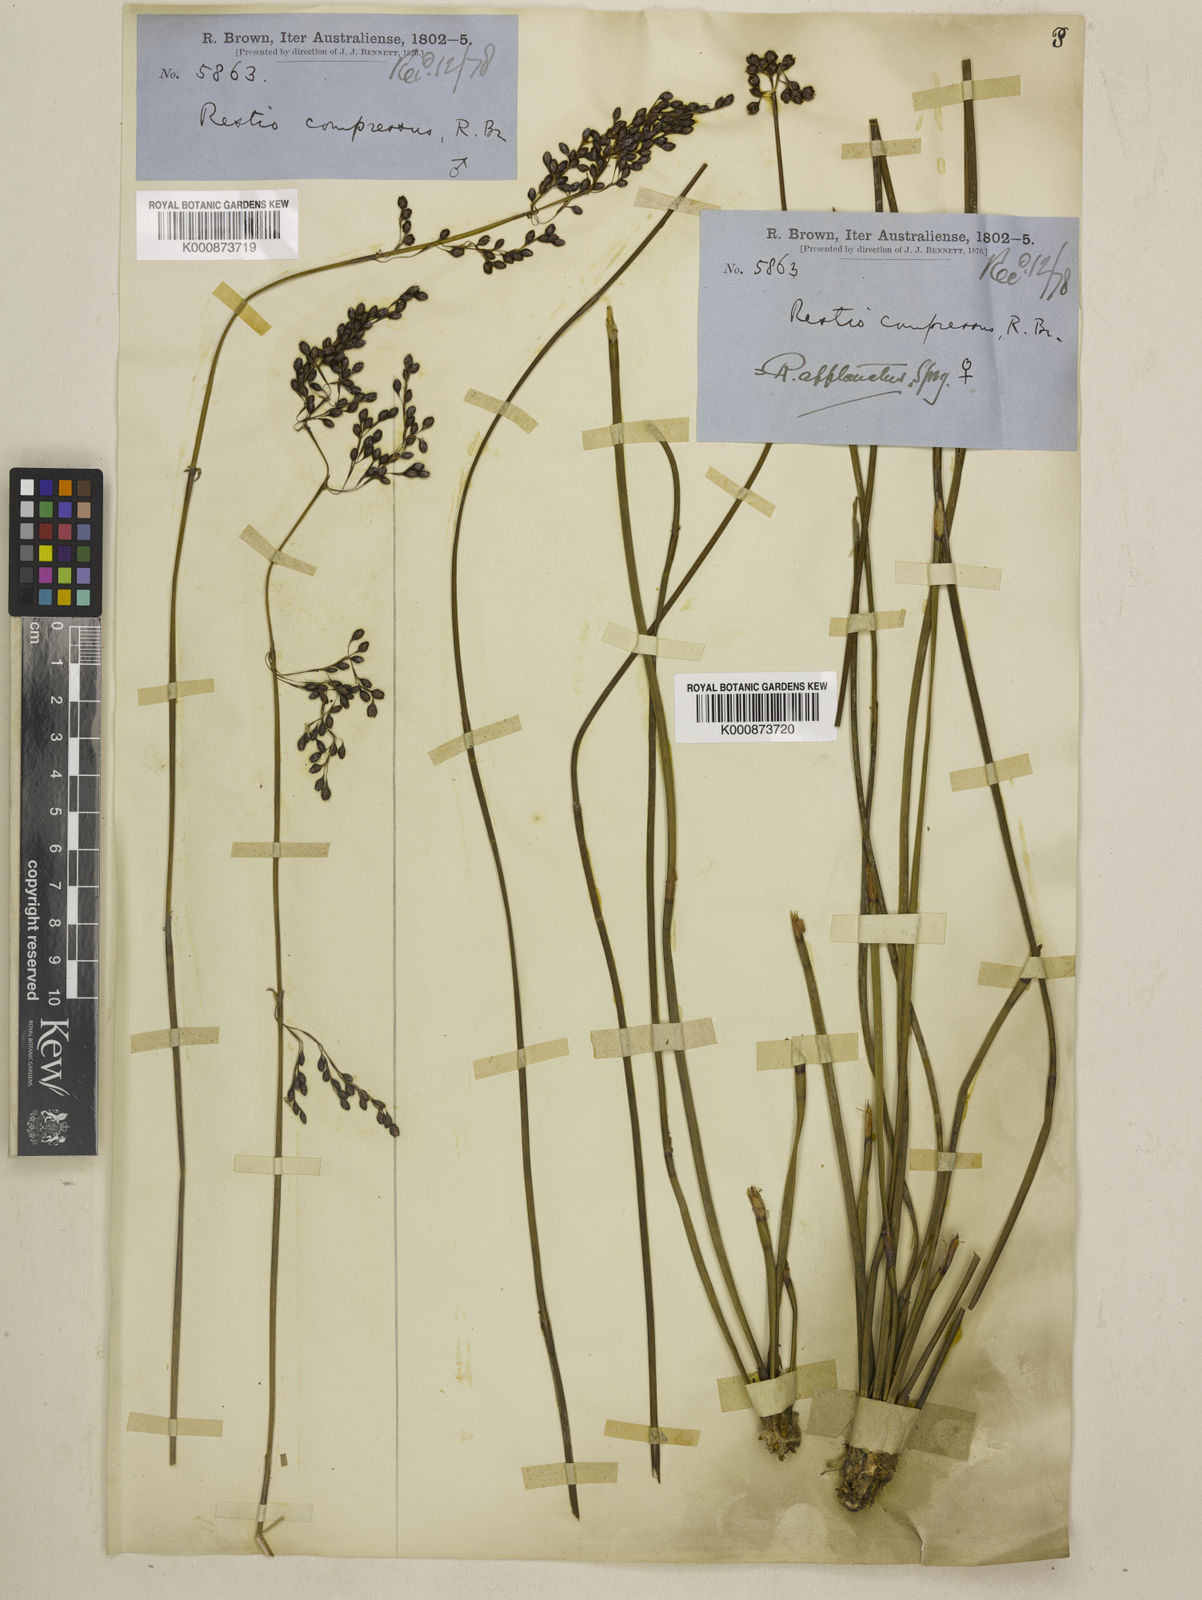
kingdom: Plantae
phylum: Tracheophyta
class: Liliopsida
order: Poales
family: Restionaceae
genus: Platychorda
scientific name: Platychorda applanata
